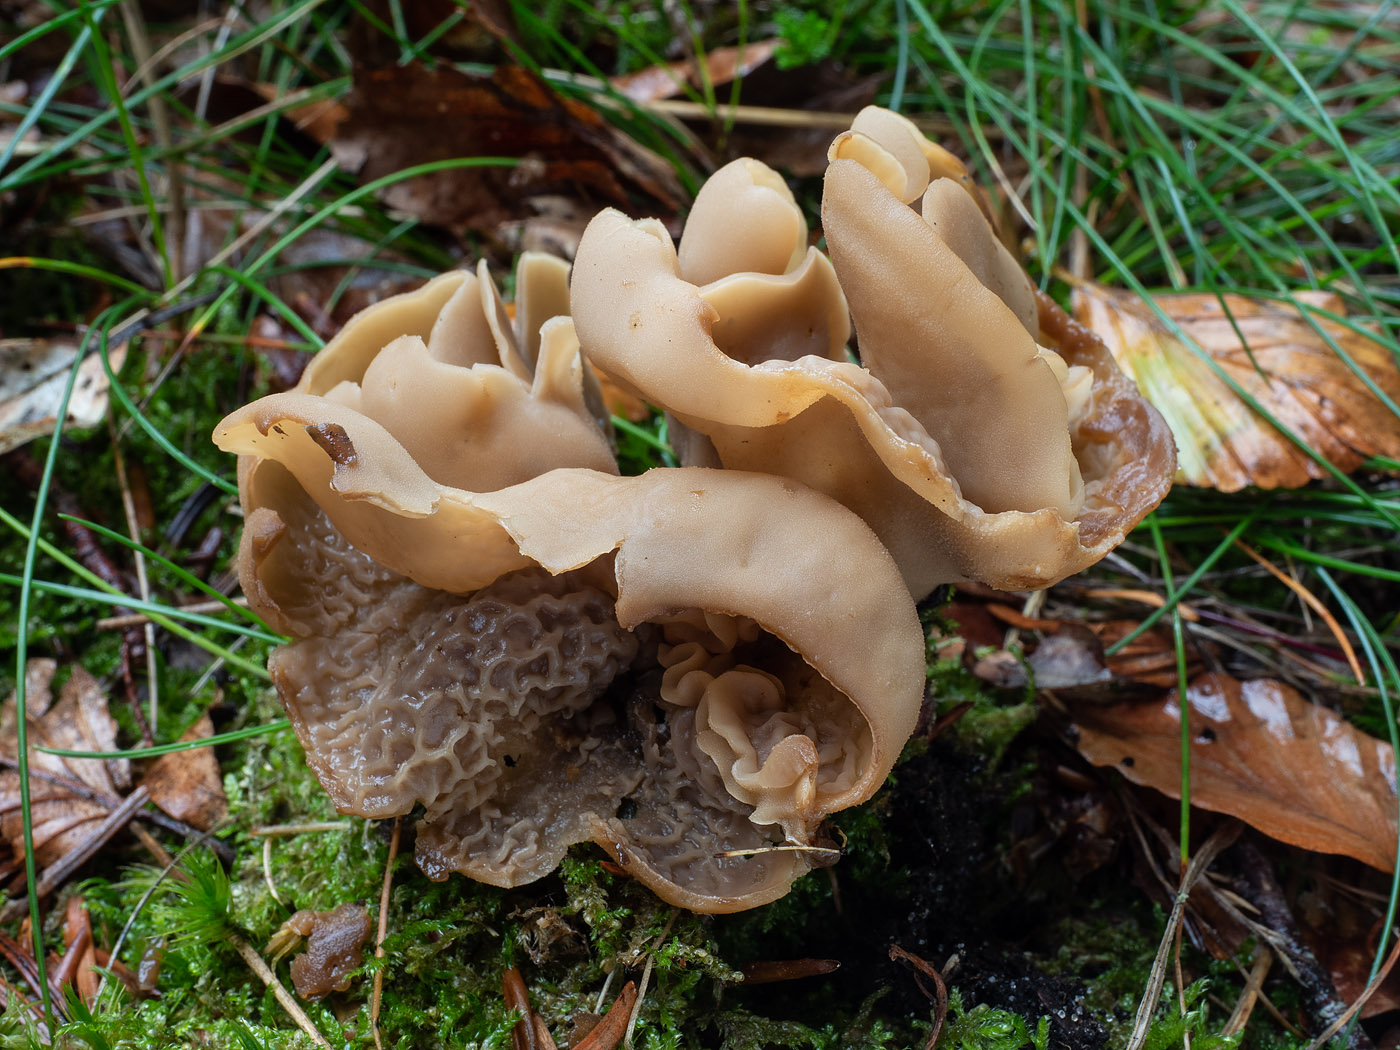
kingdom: Fungi
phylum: Ascomycota
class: Pezizomycetes
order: Pezizales
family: Otideaceae
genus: Otidea
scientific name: Otidea alutacea
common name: læder-ørebæger
